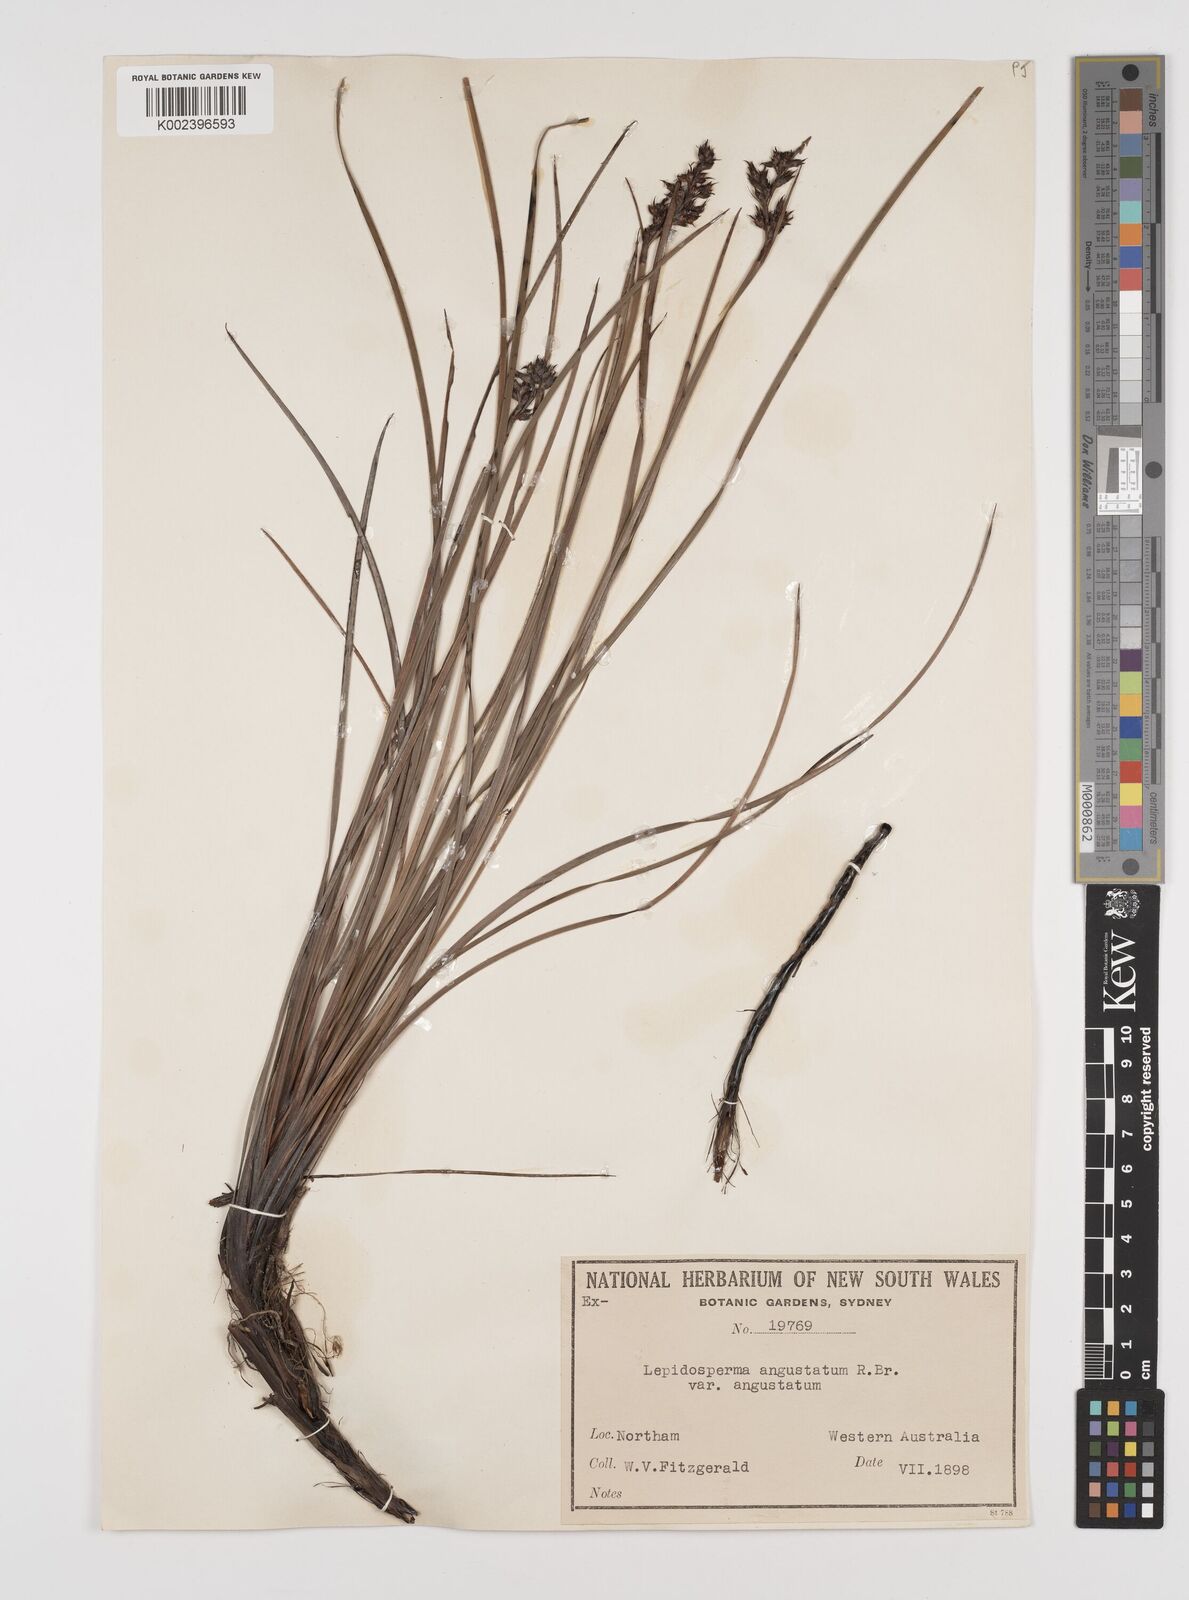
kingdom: Plantae
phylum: Tracheophyta
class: Liliopsida
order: Poales
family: Cyperaceae
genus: Lepidosperma
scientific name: Lepidosperma angustatum
